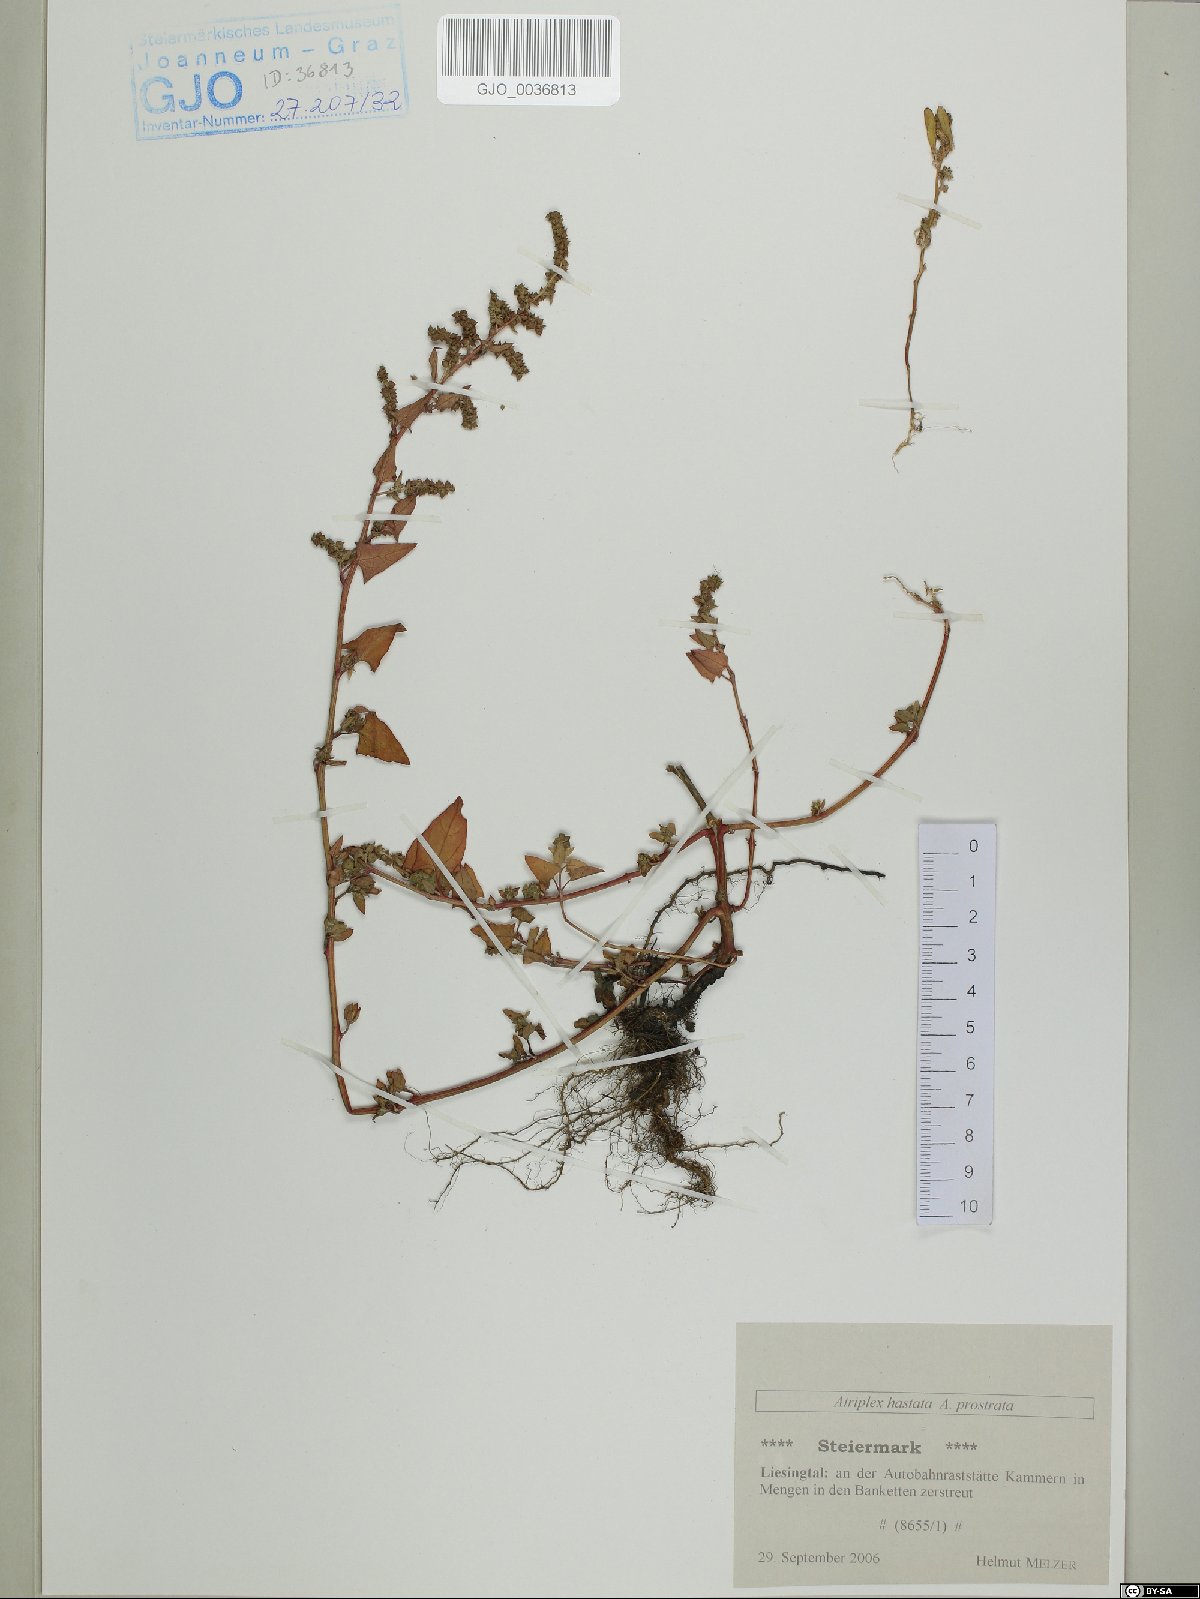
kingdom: Plantae
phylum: Tracheophyta
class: Magnoliopsida
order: Caryophyllales
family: Amaranthaceae
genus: Atriplex
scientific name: Atriplex calotheca
